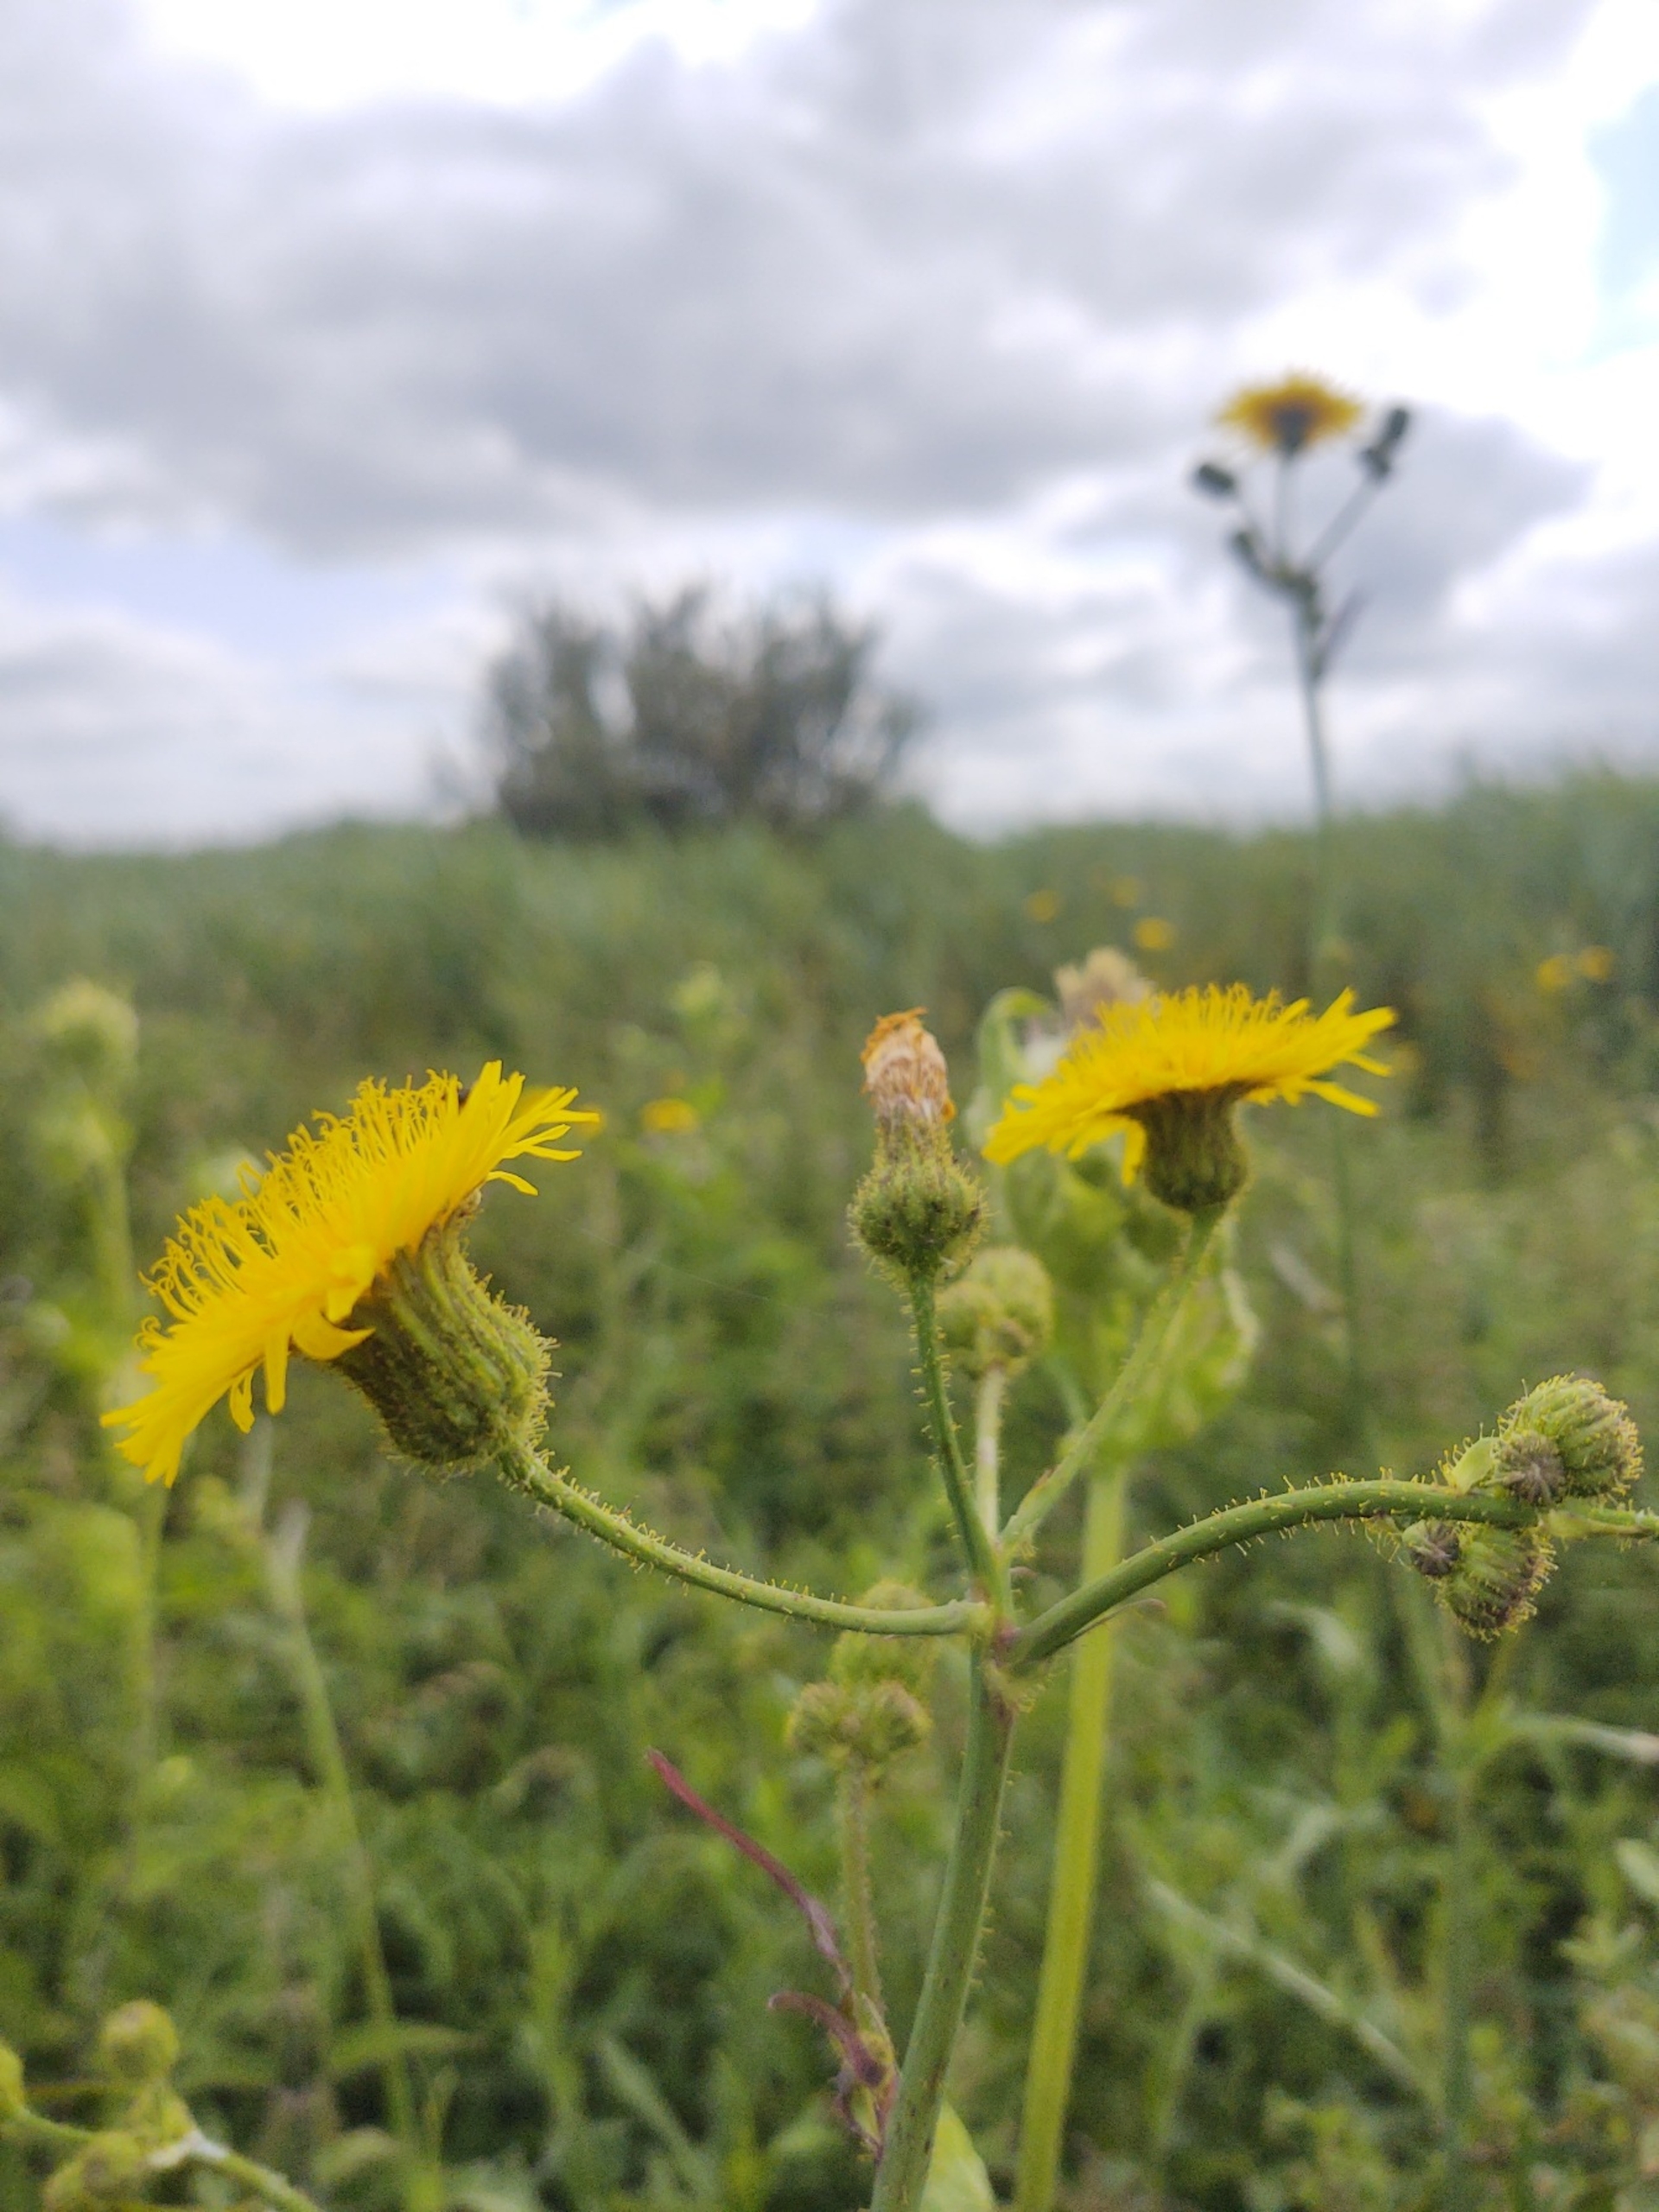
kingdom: Plantae
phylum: Tracheophyta
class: Magnoliopsida
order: Asterales
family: Asteraceae
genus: Sonchus
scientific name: Sonchus arvensis
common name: Ager-svinemælk
